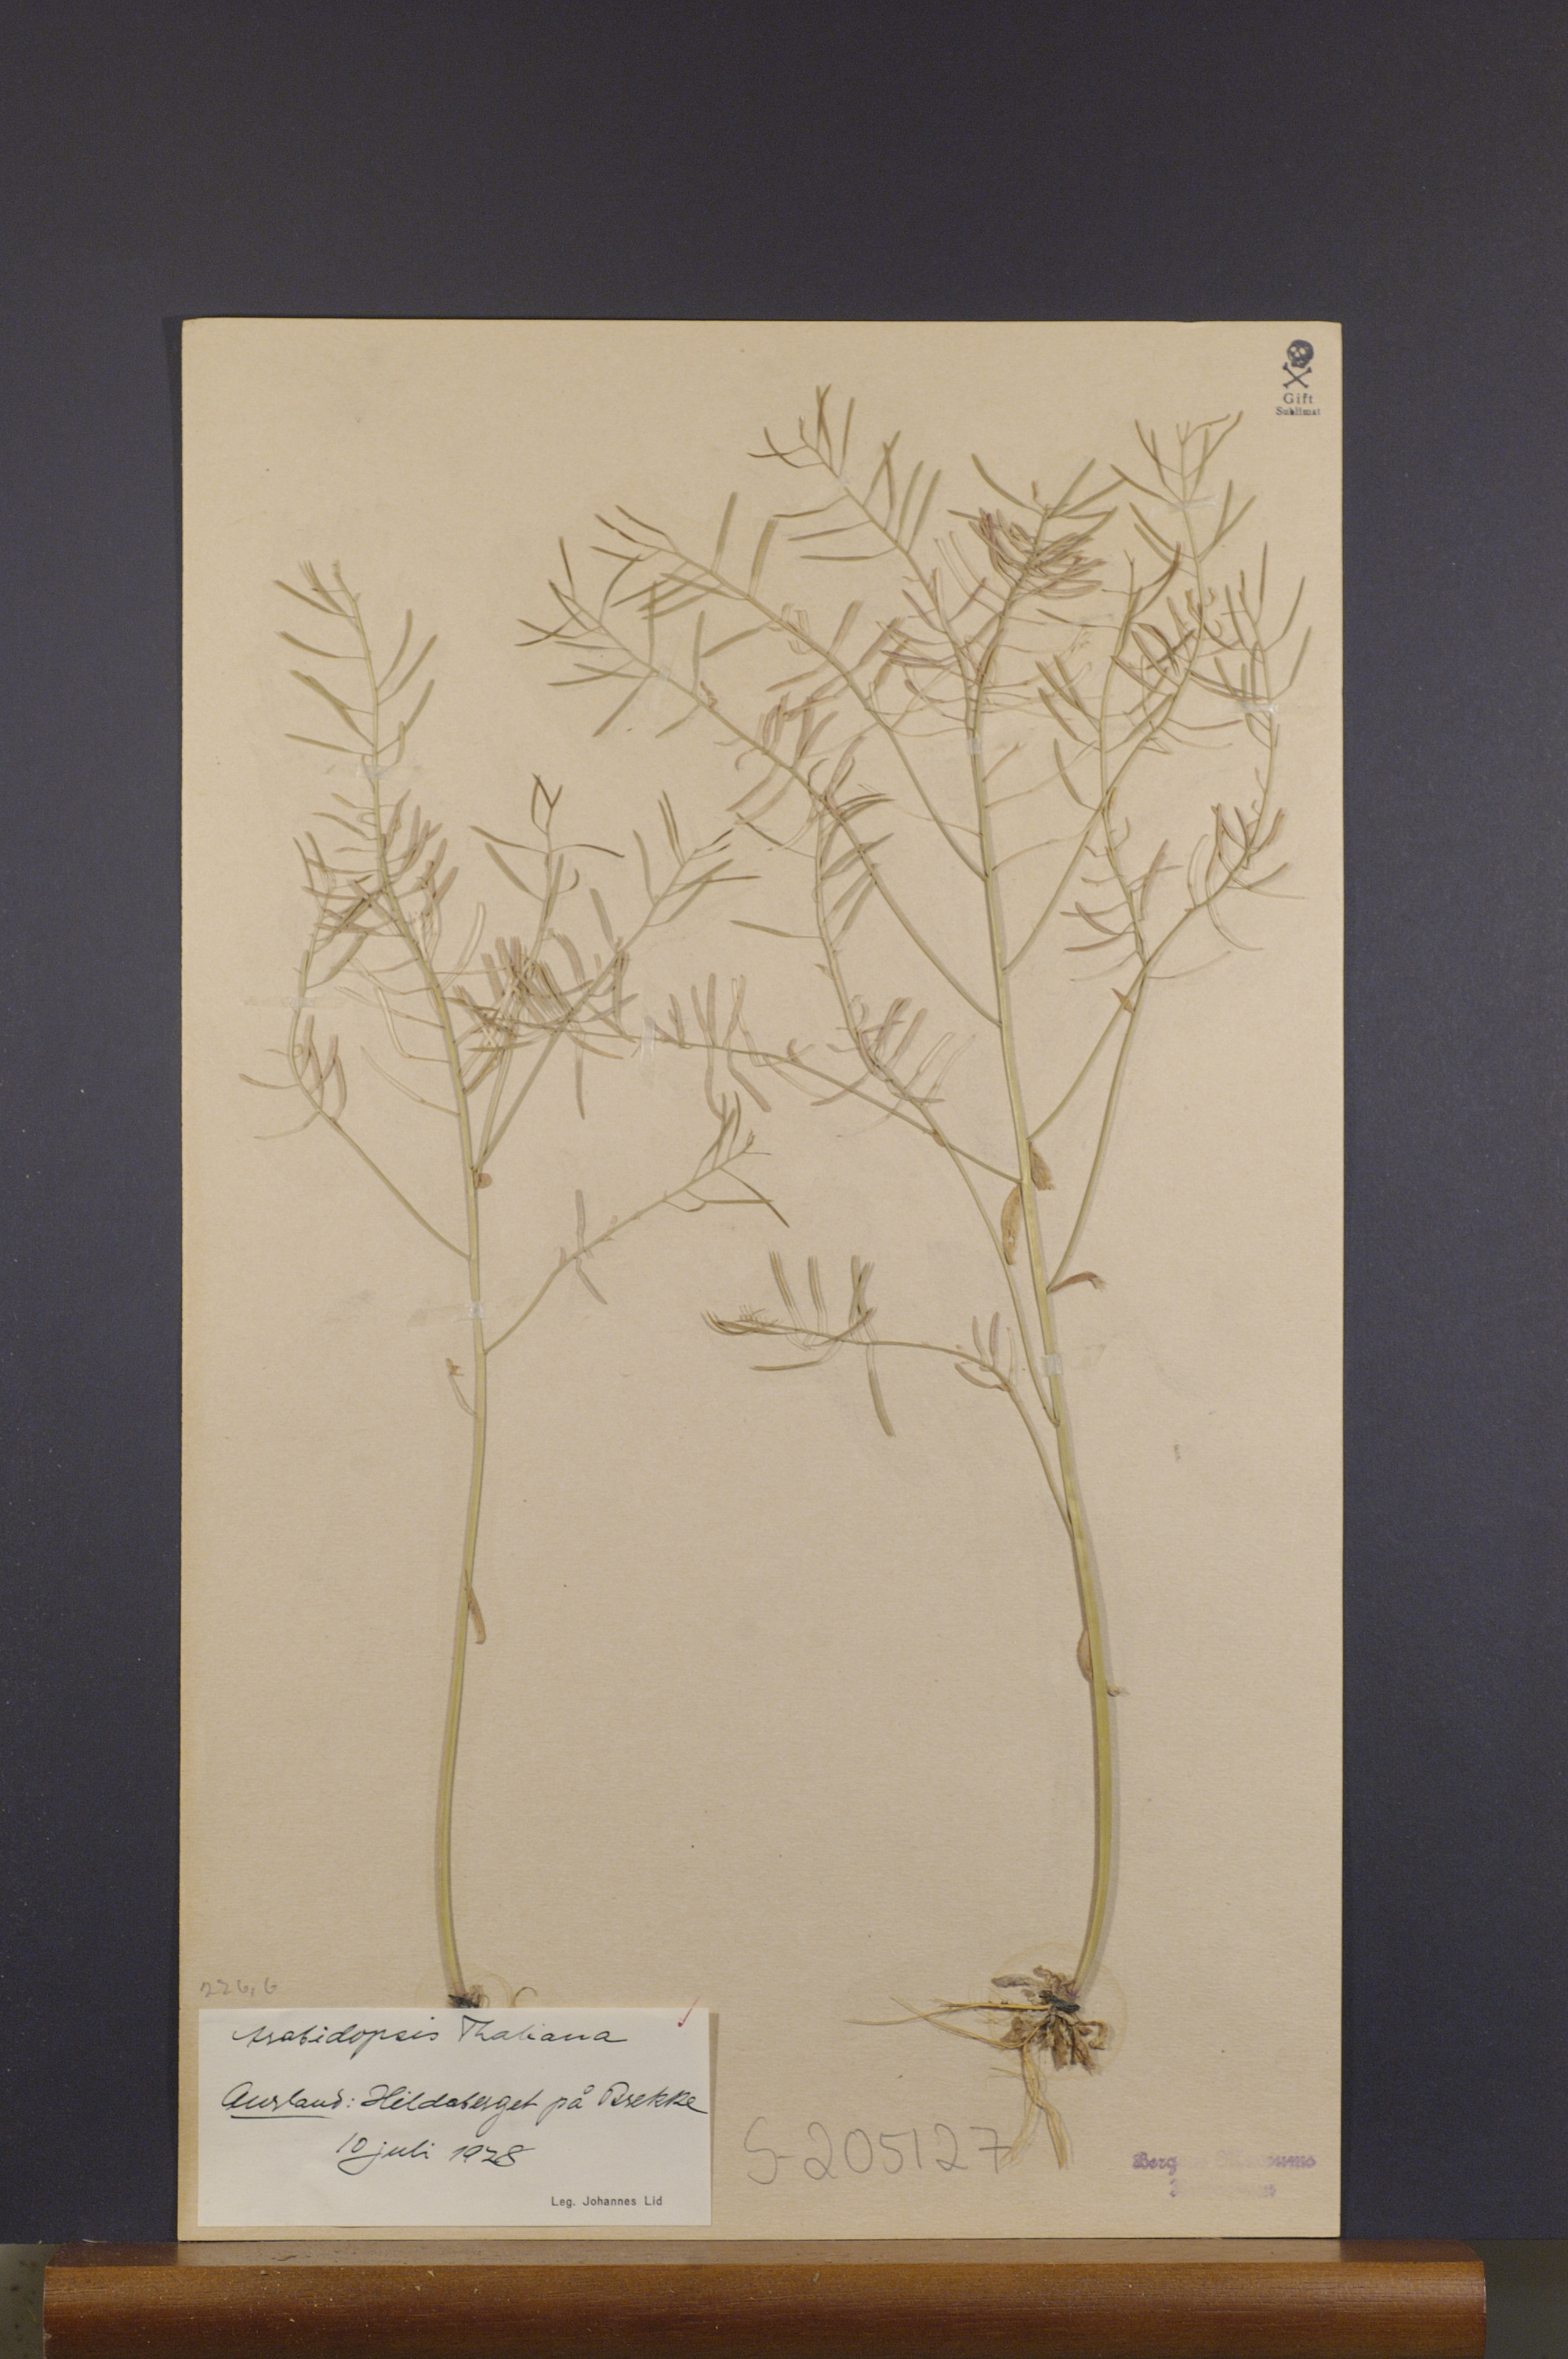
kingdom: Plantae
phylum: Tracheophyta
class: Magnoliopsida
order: Brassicales
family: Brassicaceae
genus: Arabidopsis
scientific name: Arabidopsis thaliana
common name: Thale cress
